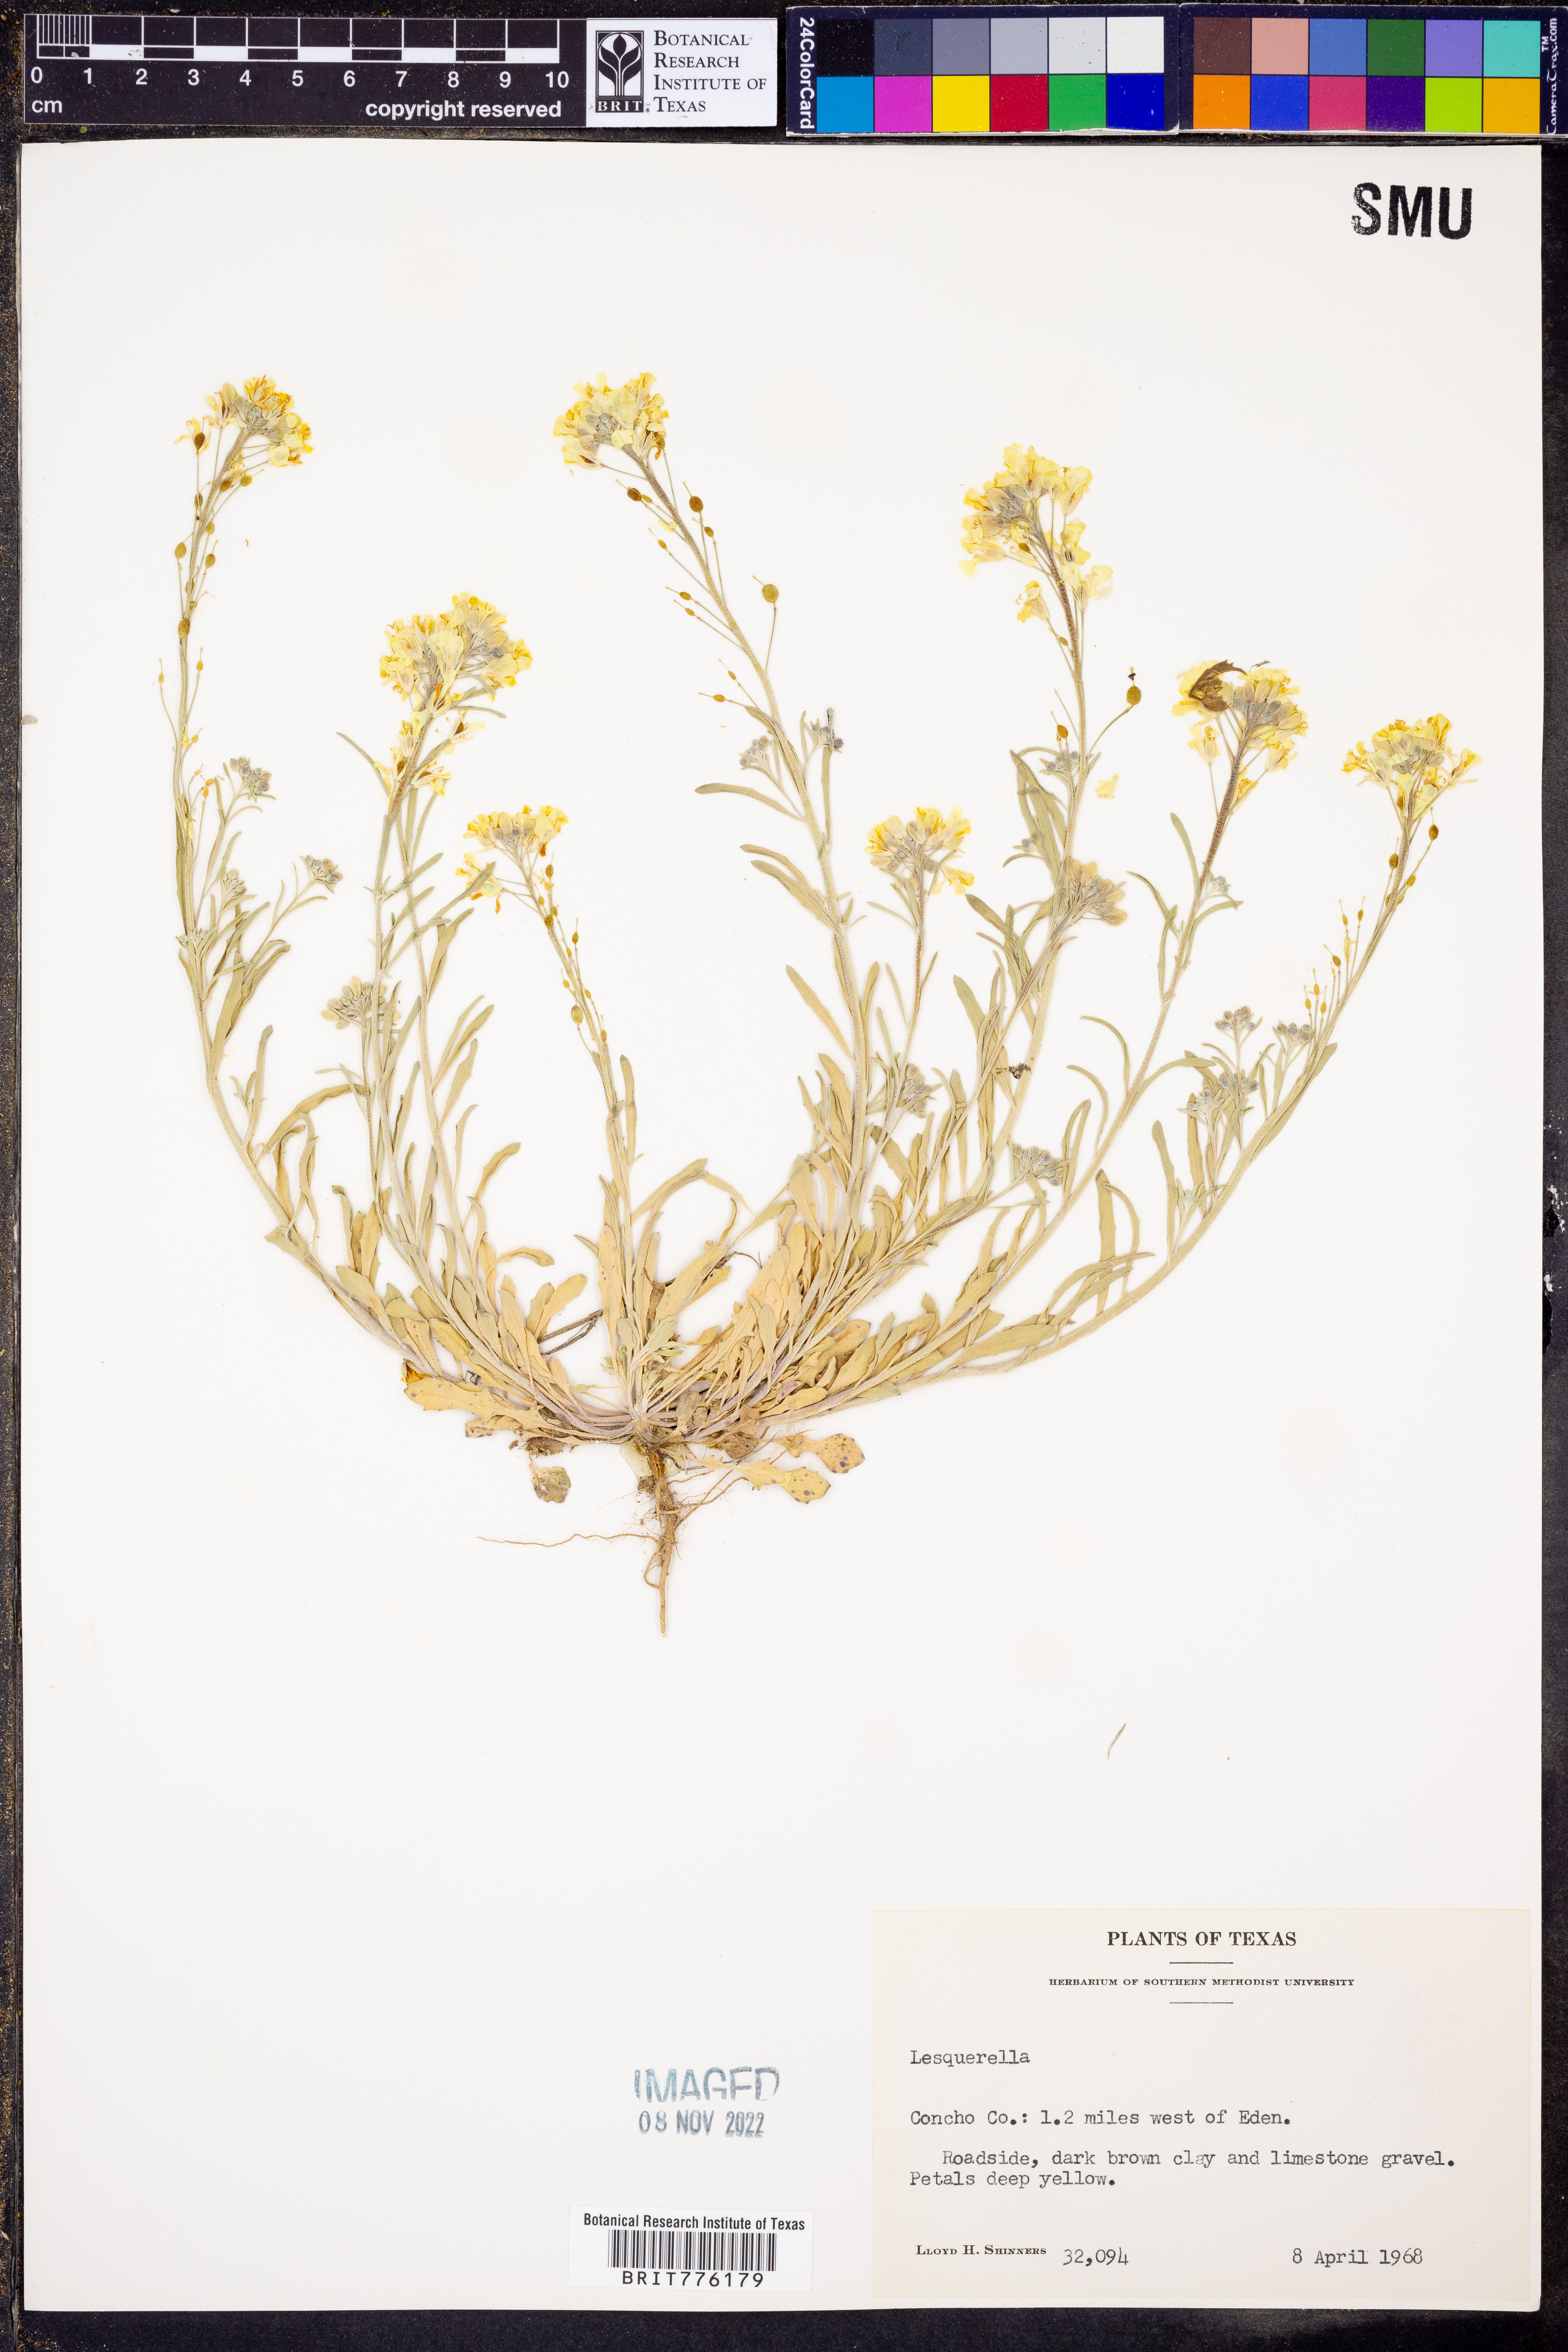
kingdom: Chromista
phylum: Cercozoa
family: Psammonobiotidae
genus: Lesquerella
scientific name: Lesquerella
